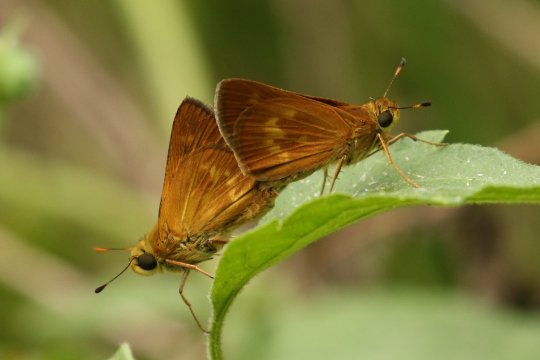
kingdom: Animalia
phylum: Arthropoda
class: Insecta
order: Lepidoptera
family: Hesperiidae
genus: Wallengrenia
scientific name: Wallengrenia otho
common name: Southern Broken-Dash
